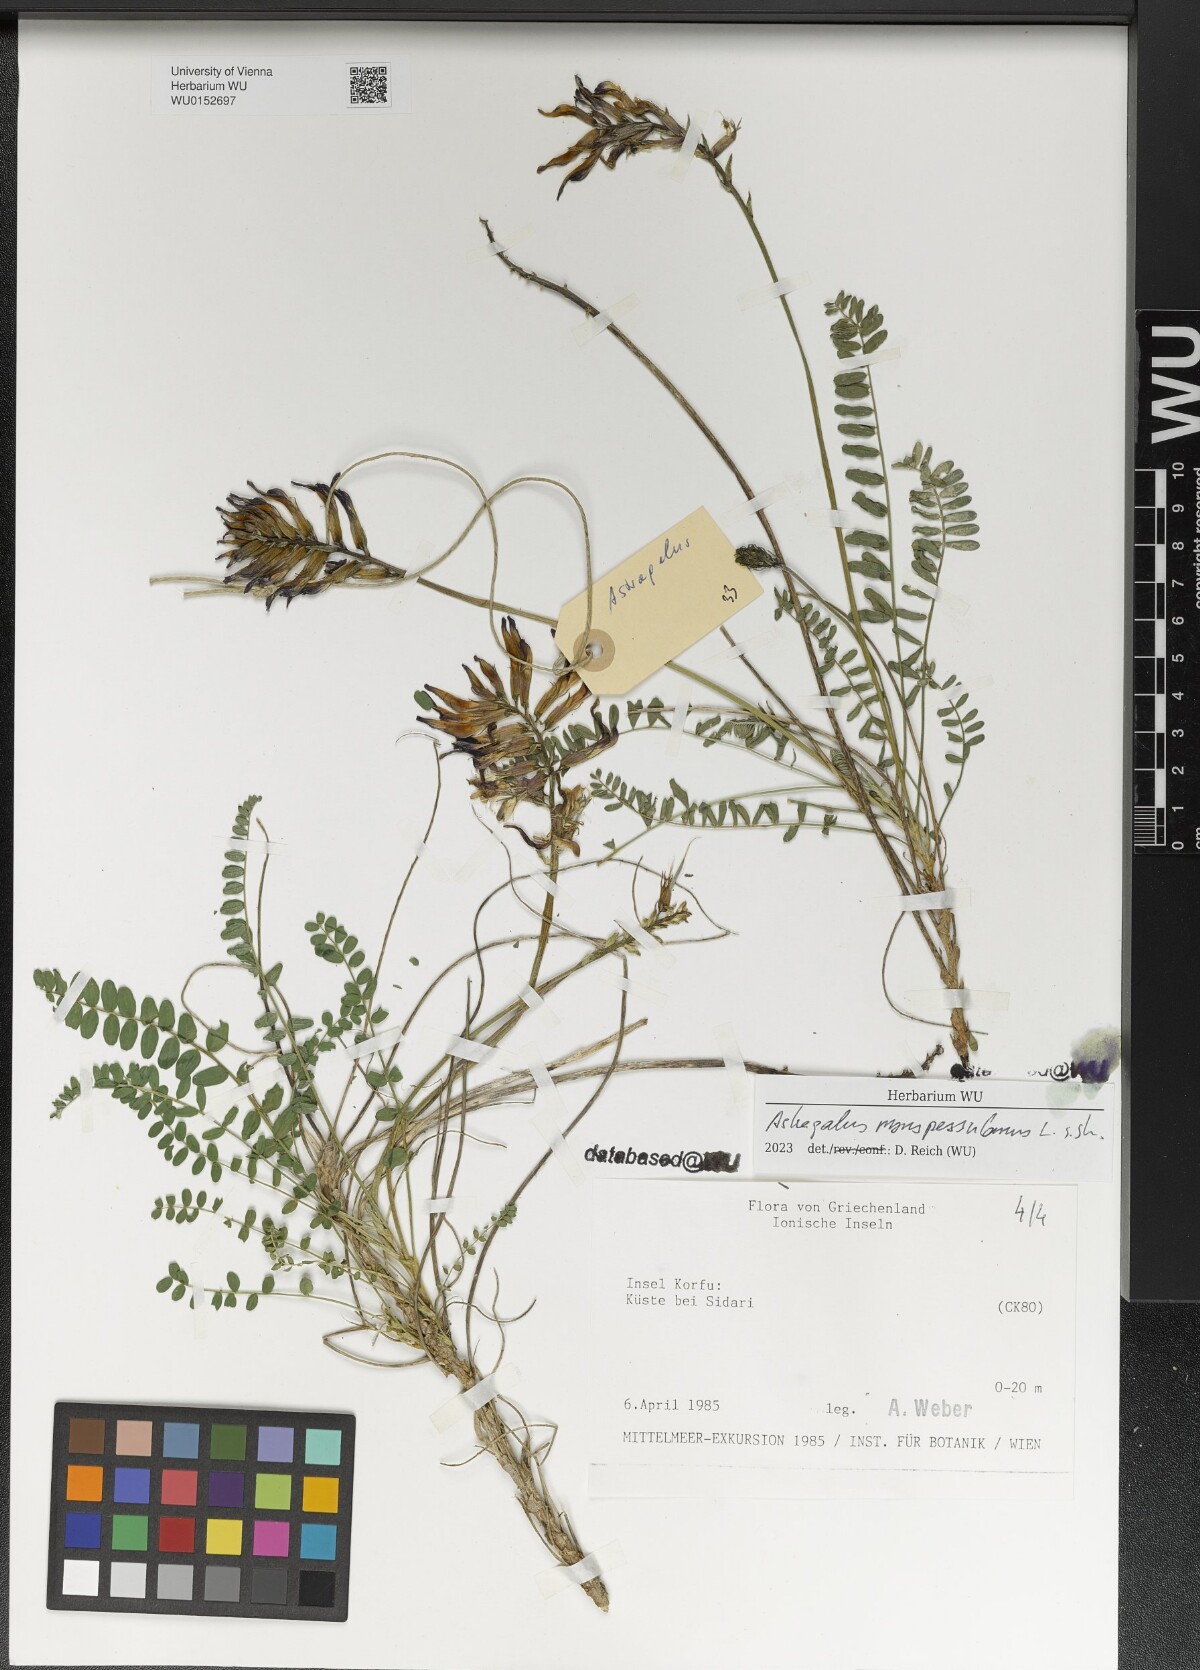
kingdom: Plantae
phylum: Tracheophyta
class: Magnoliopsida
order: Fabales
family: Fabaceae
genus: Astragalus
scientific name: Astragalus monspessulanus
